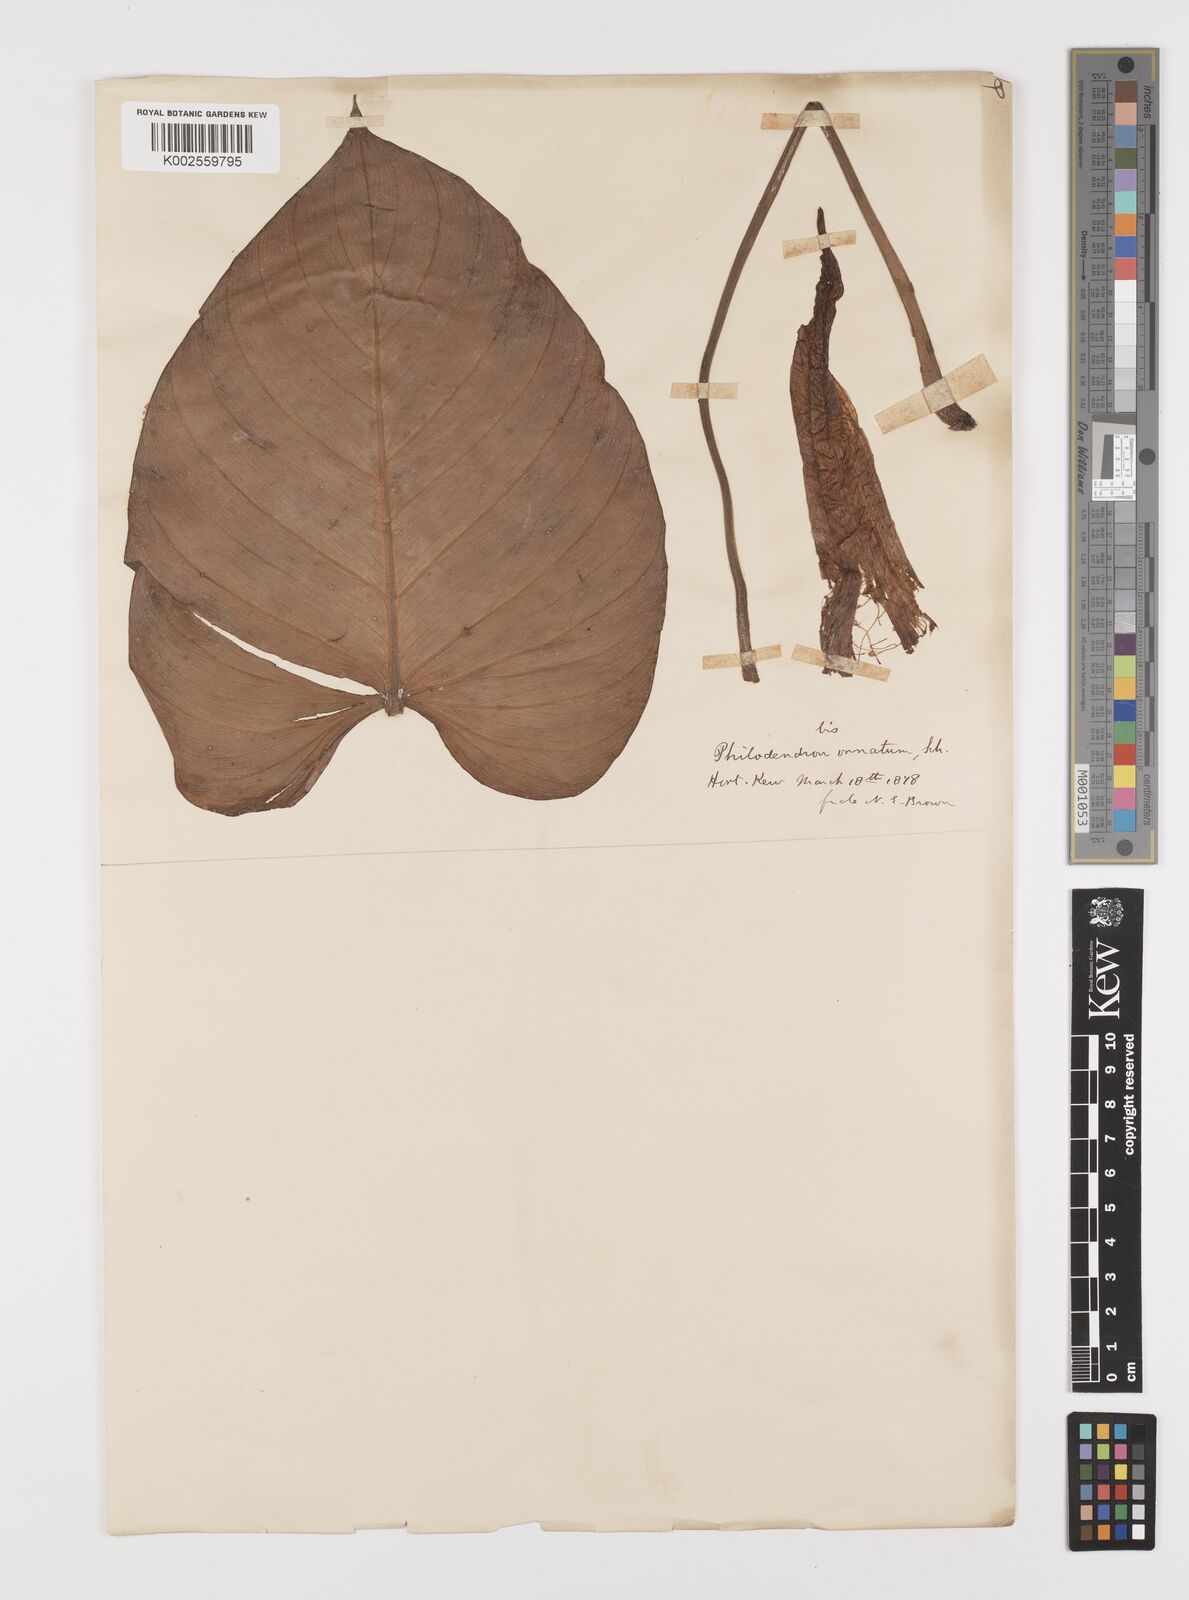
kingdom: Plantae
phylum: Tracheophyta
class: Liliopsida
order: Alismatales
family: Araceae
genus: Philodendron
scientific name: Philodendron ornatum
